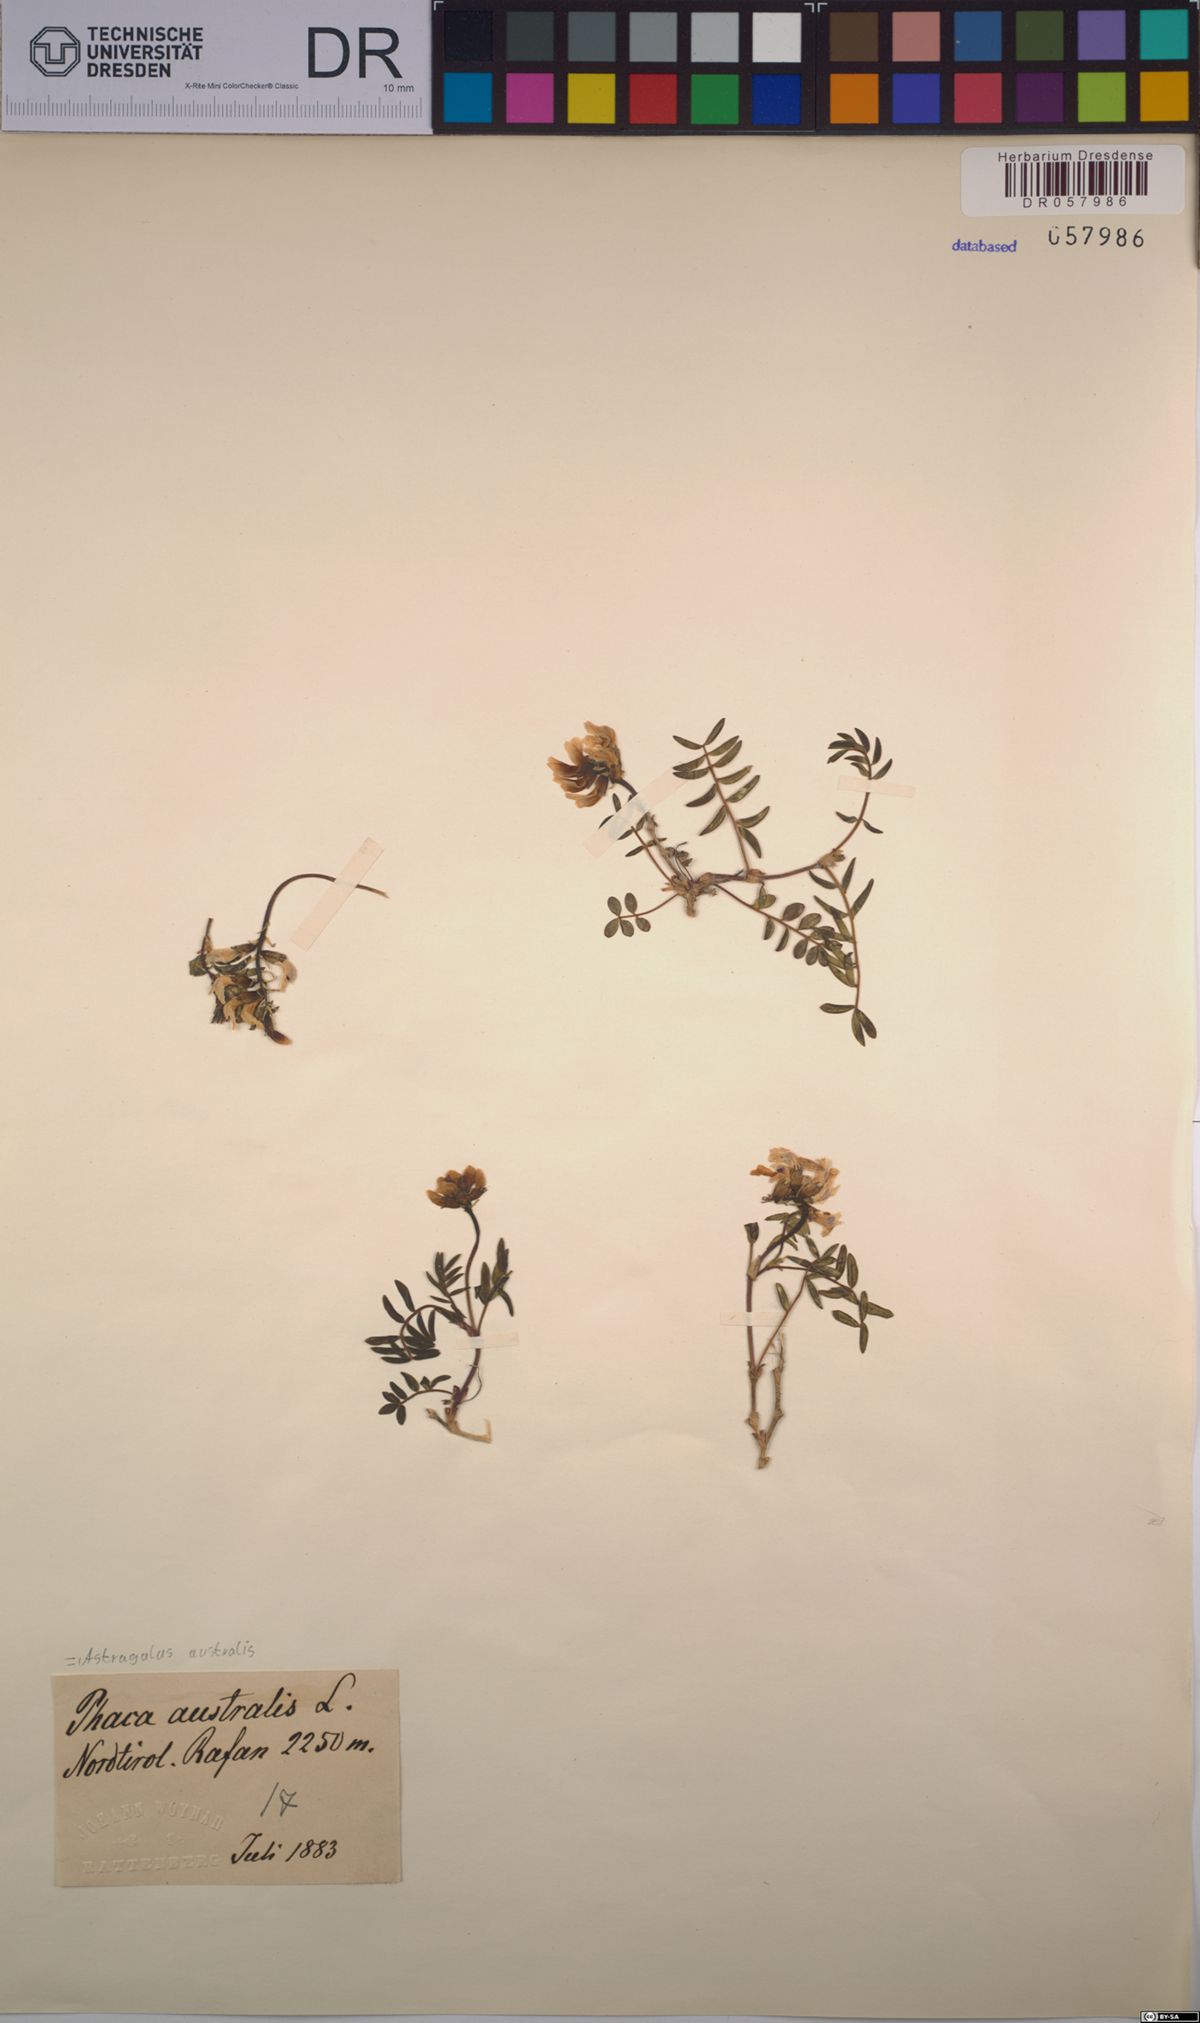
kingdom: Plantae
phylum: Tracheophyta
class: Magnoliopsida
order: Fabales
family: Fabaceae
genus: Astragalus
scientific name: Astragalus australis
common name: Indian milk-vetch
